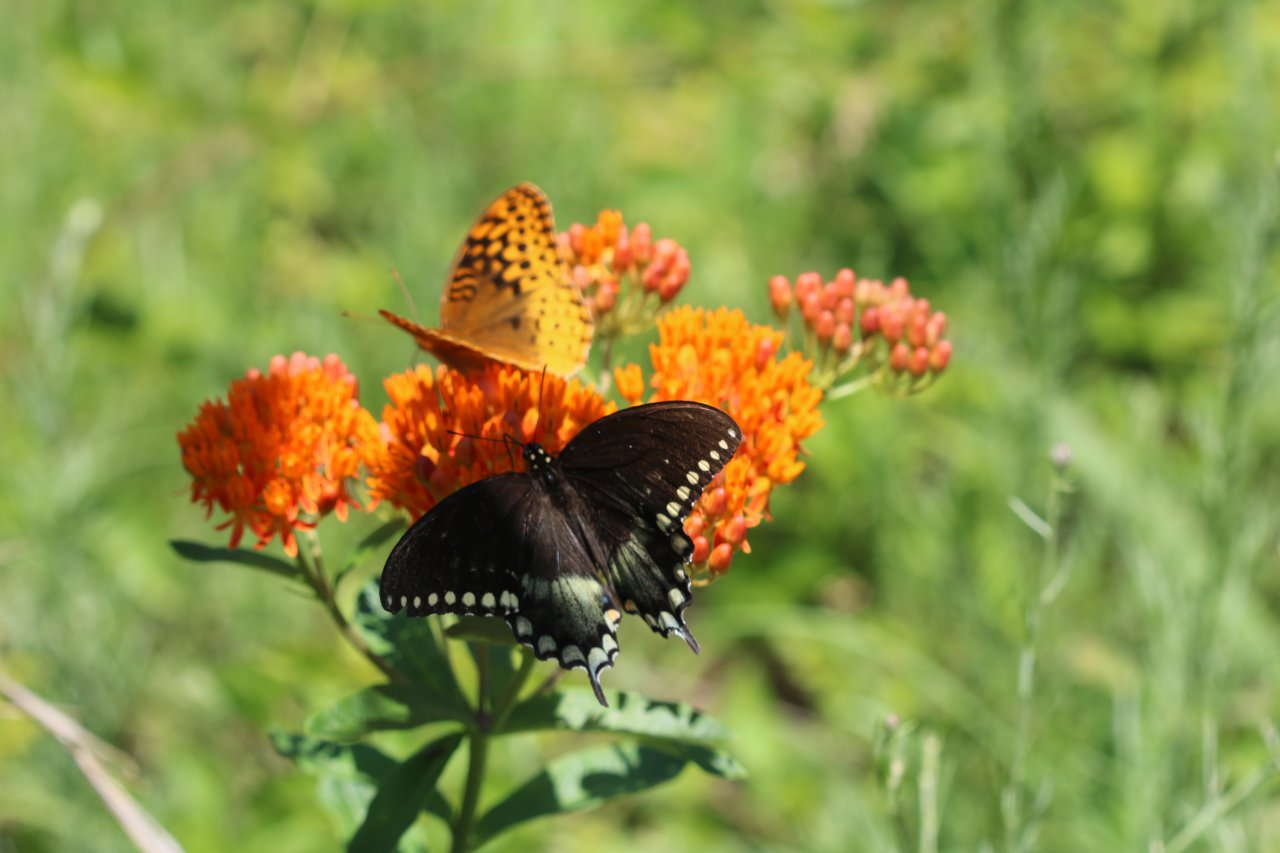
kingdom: Animalia
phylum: Arthropoda
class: Insecta
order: Lepidoptera
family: Papilionidae
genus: Pterourus
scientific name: Pterourus troilus
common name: Spicebush Swallowtail
